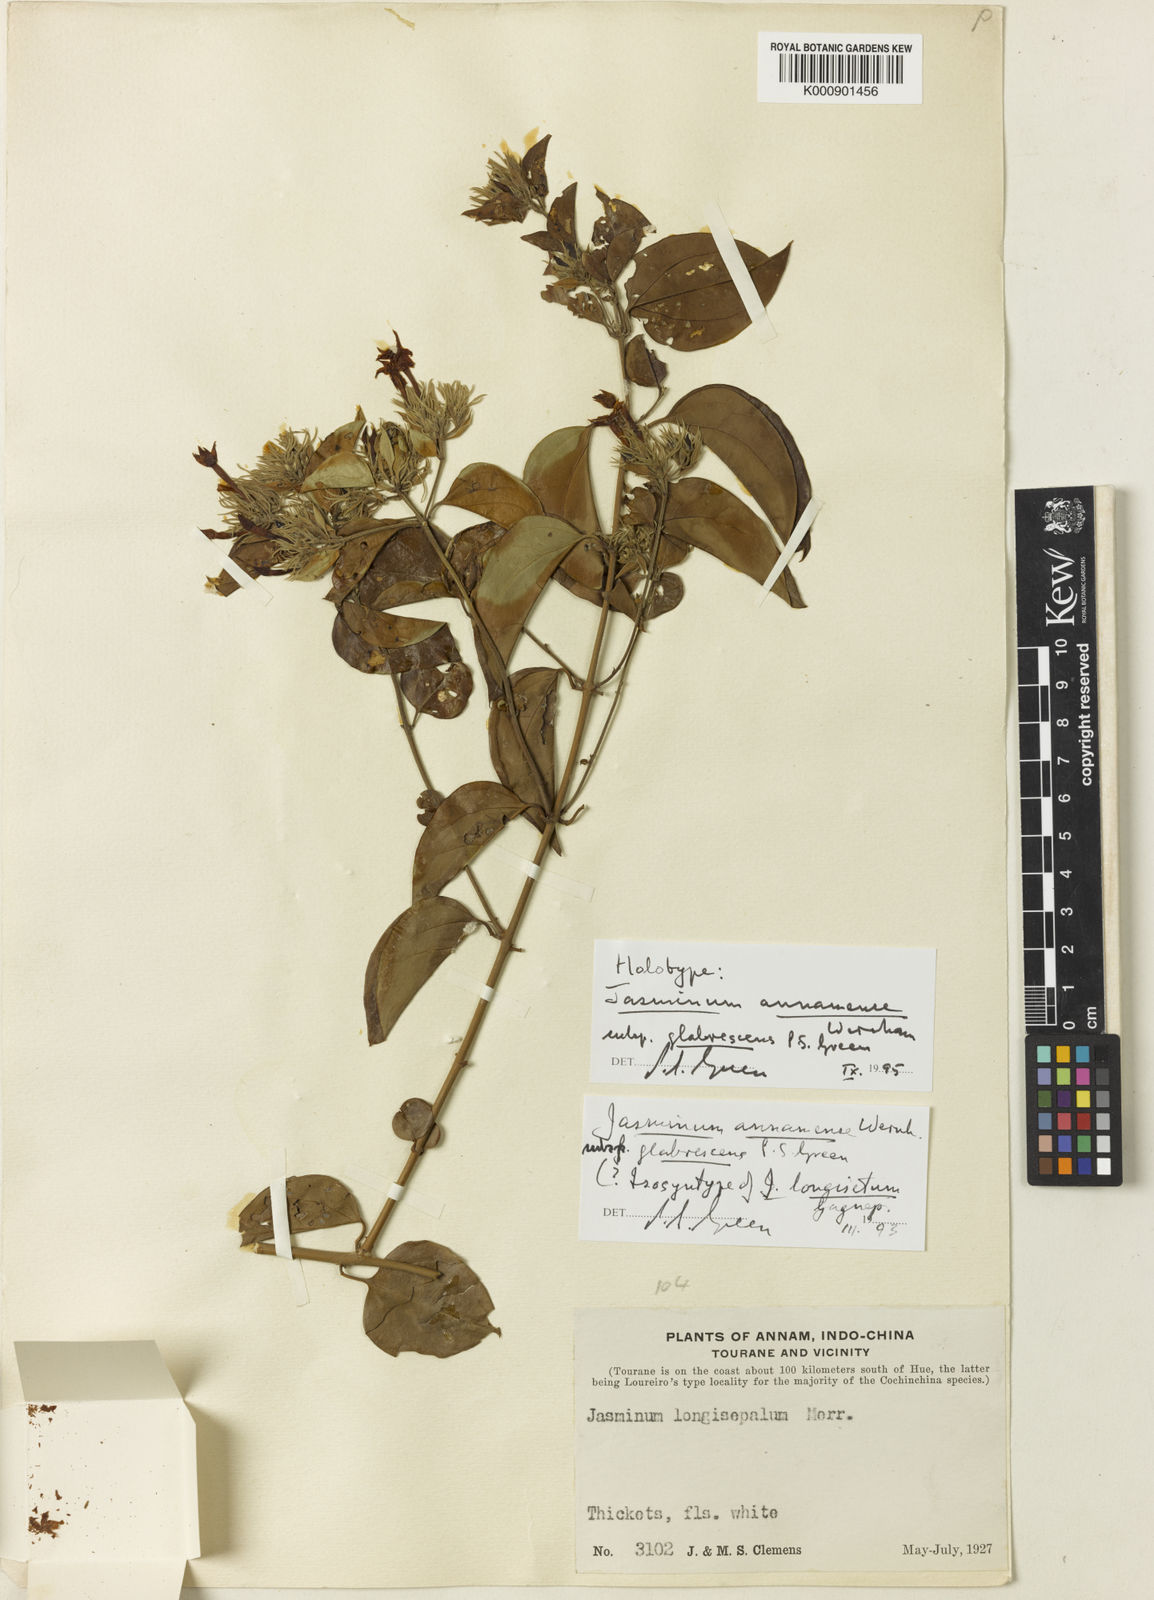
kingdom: Plantae
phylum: Tracheophyta
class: Magnoliopsida
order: Lamiales
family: Oleaceae
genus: Jasminum
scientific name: Jasminum annamense
